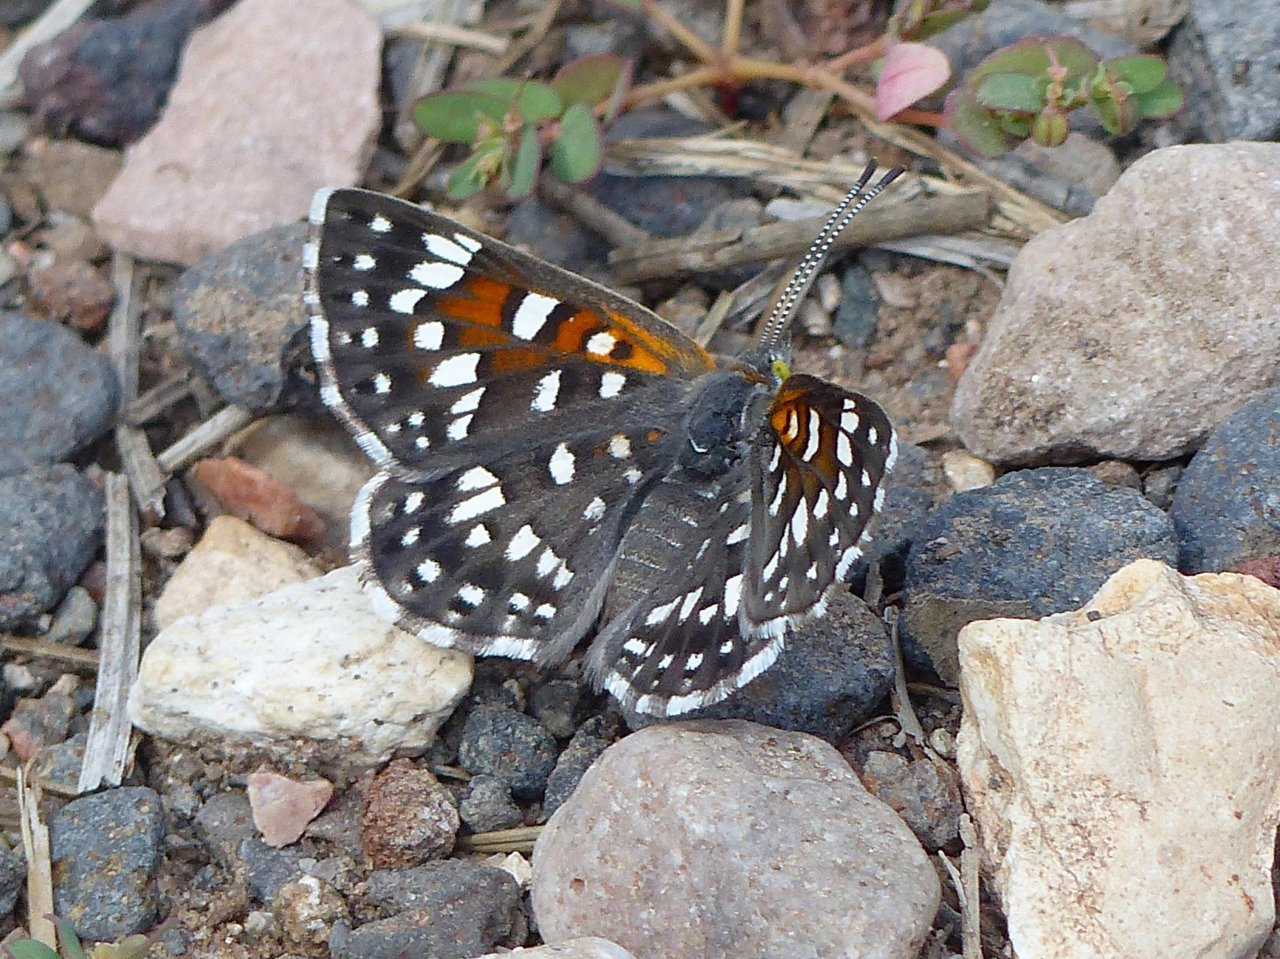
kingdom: Animalia
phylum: Arthropoda
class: Insecta
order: Lepidoptera
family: Riodinidae
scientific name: Riodinidae
